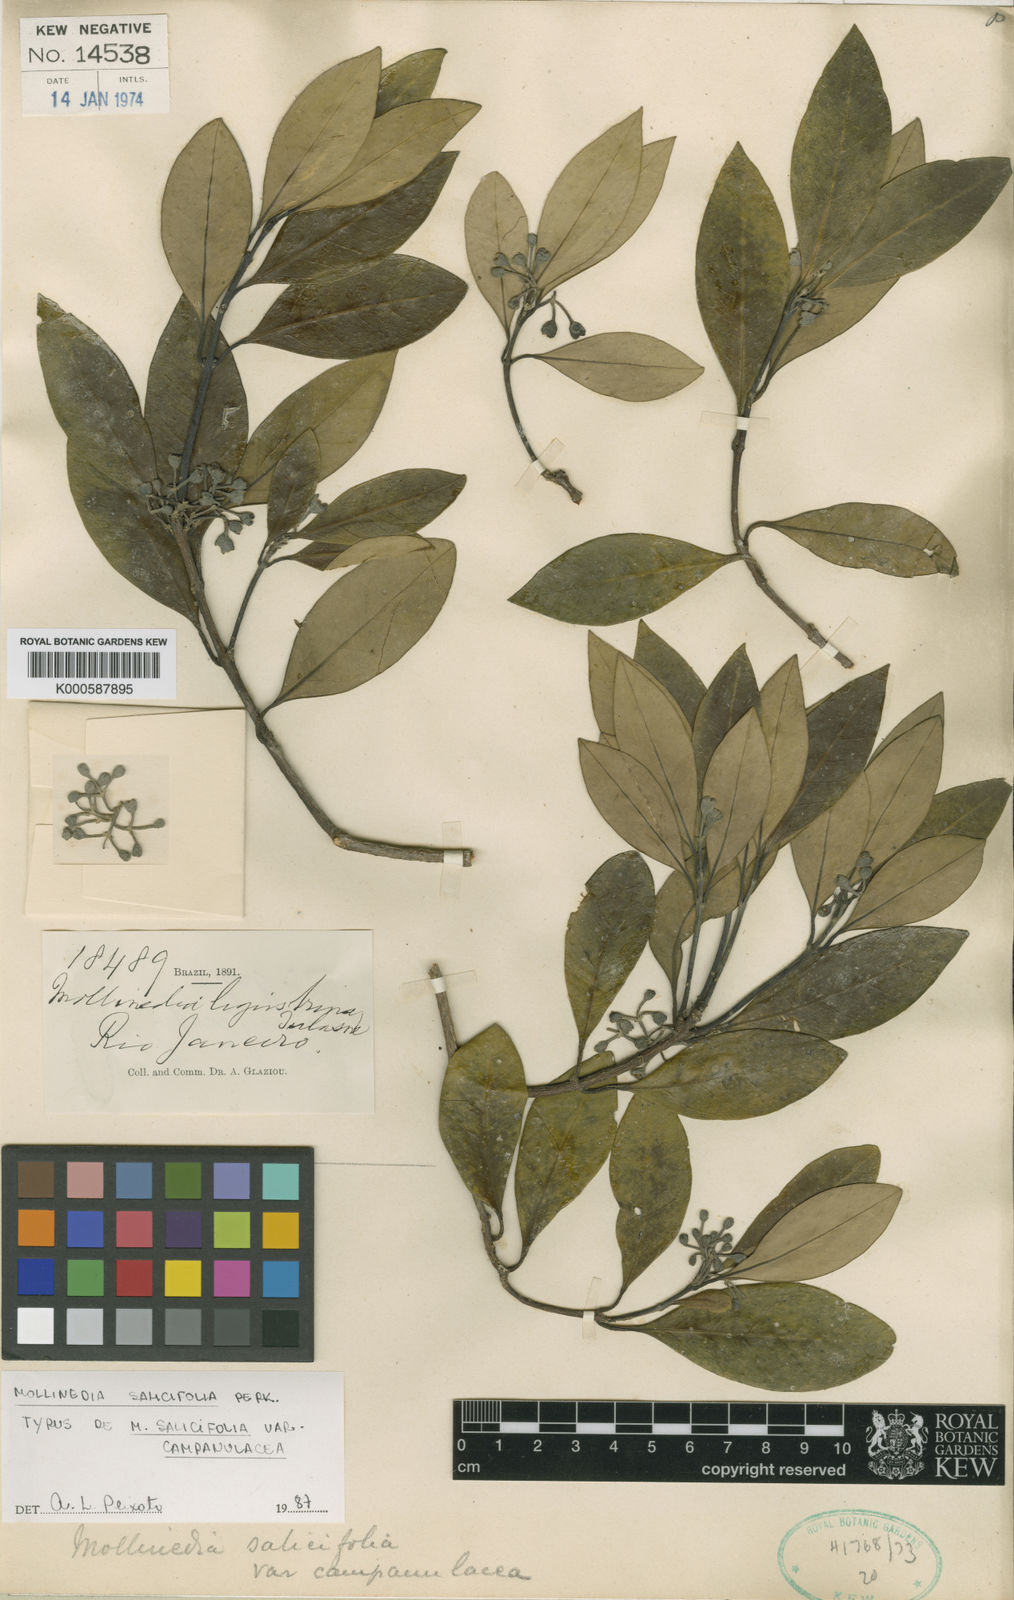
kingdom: Plantae
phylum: Tracheophyta
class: Magnoliopsida
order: Laurales
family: Monimiaceae
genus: Mollinedia
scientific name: Mollinedia salicifolia
